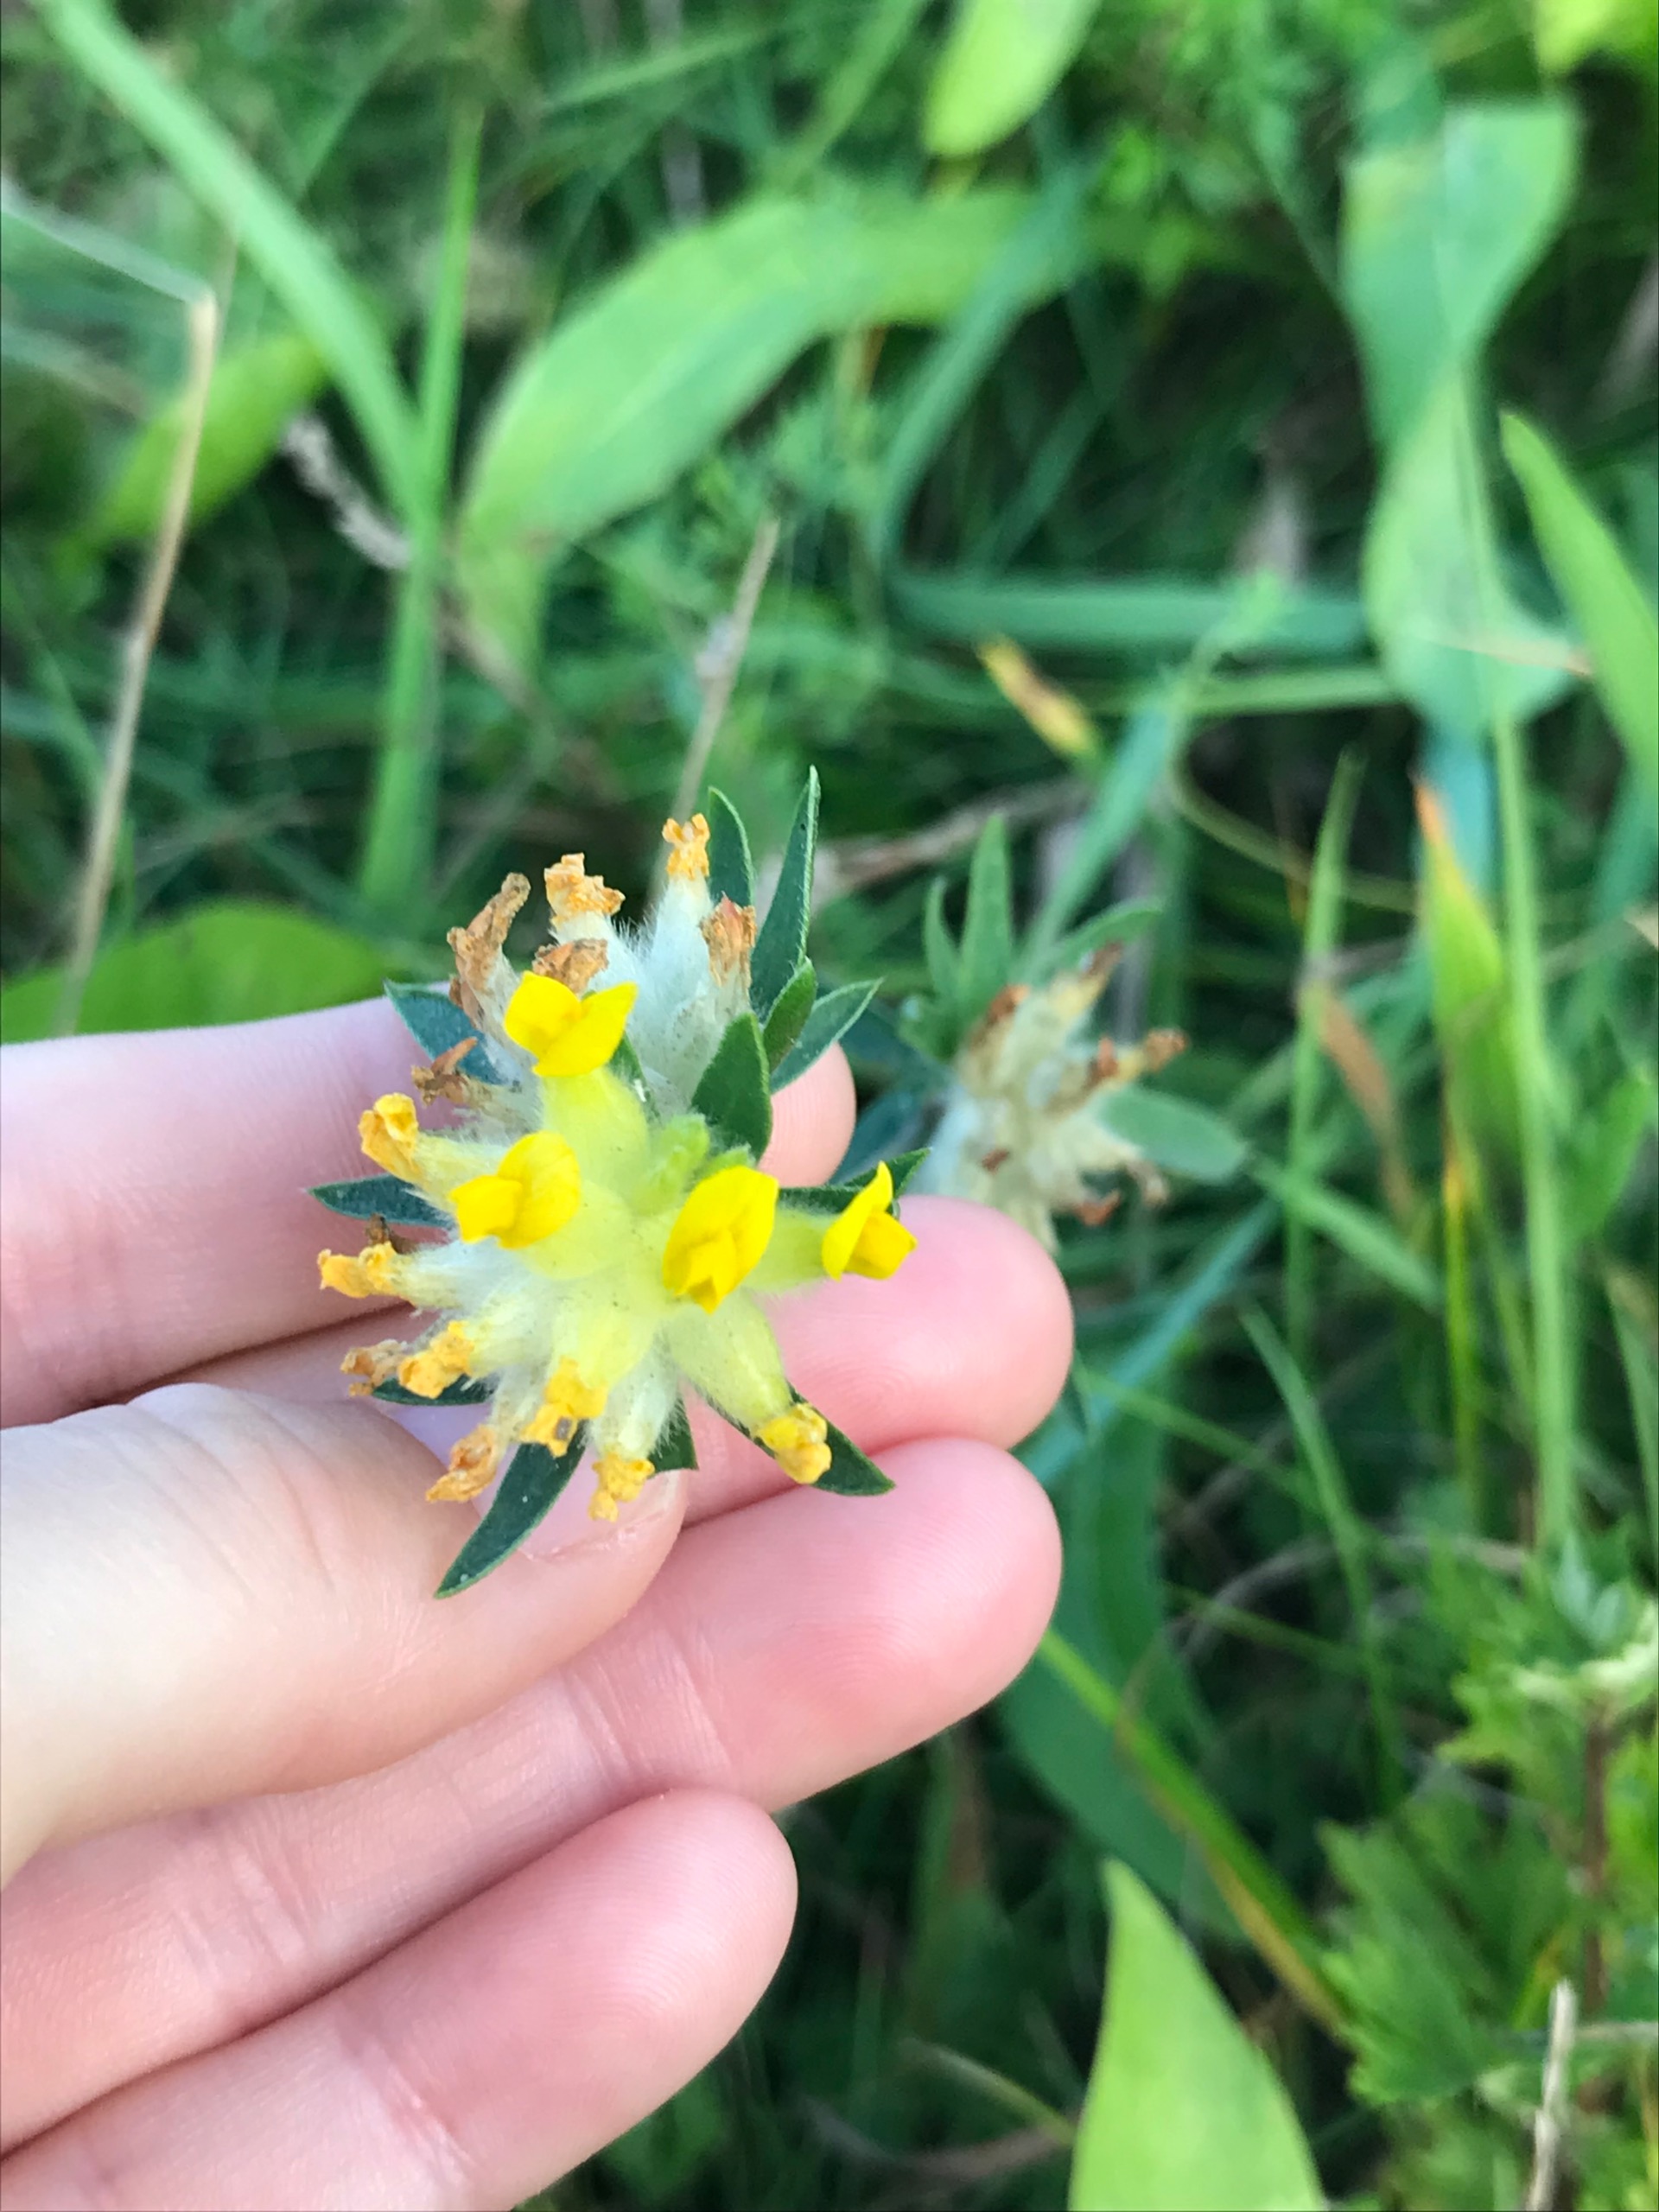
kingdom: Plantae
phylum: Tracheophyta
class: Magnoliopsida
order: Fabales
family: Fabaceae
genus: Anthyllis
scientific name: Anthyllis vulneraria
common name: Rundbælg
